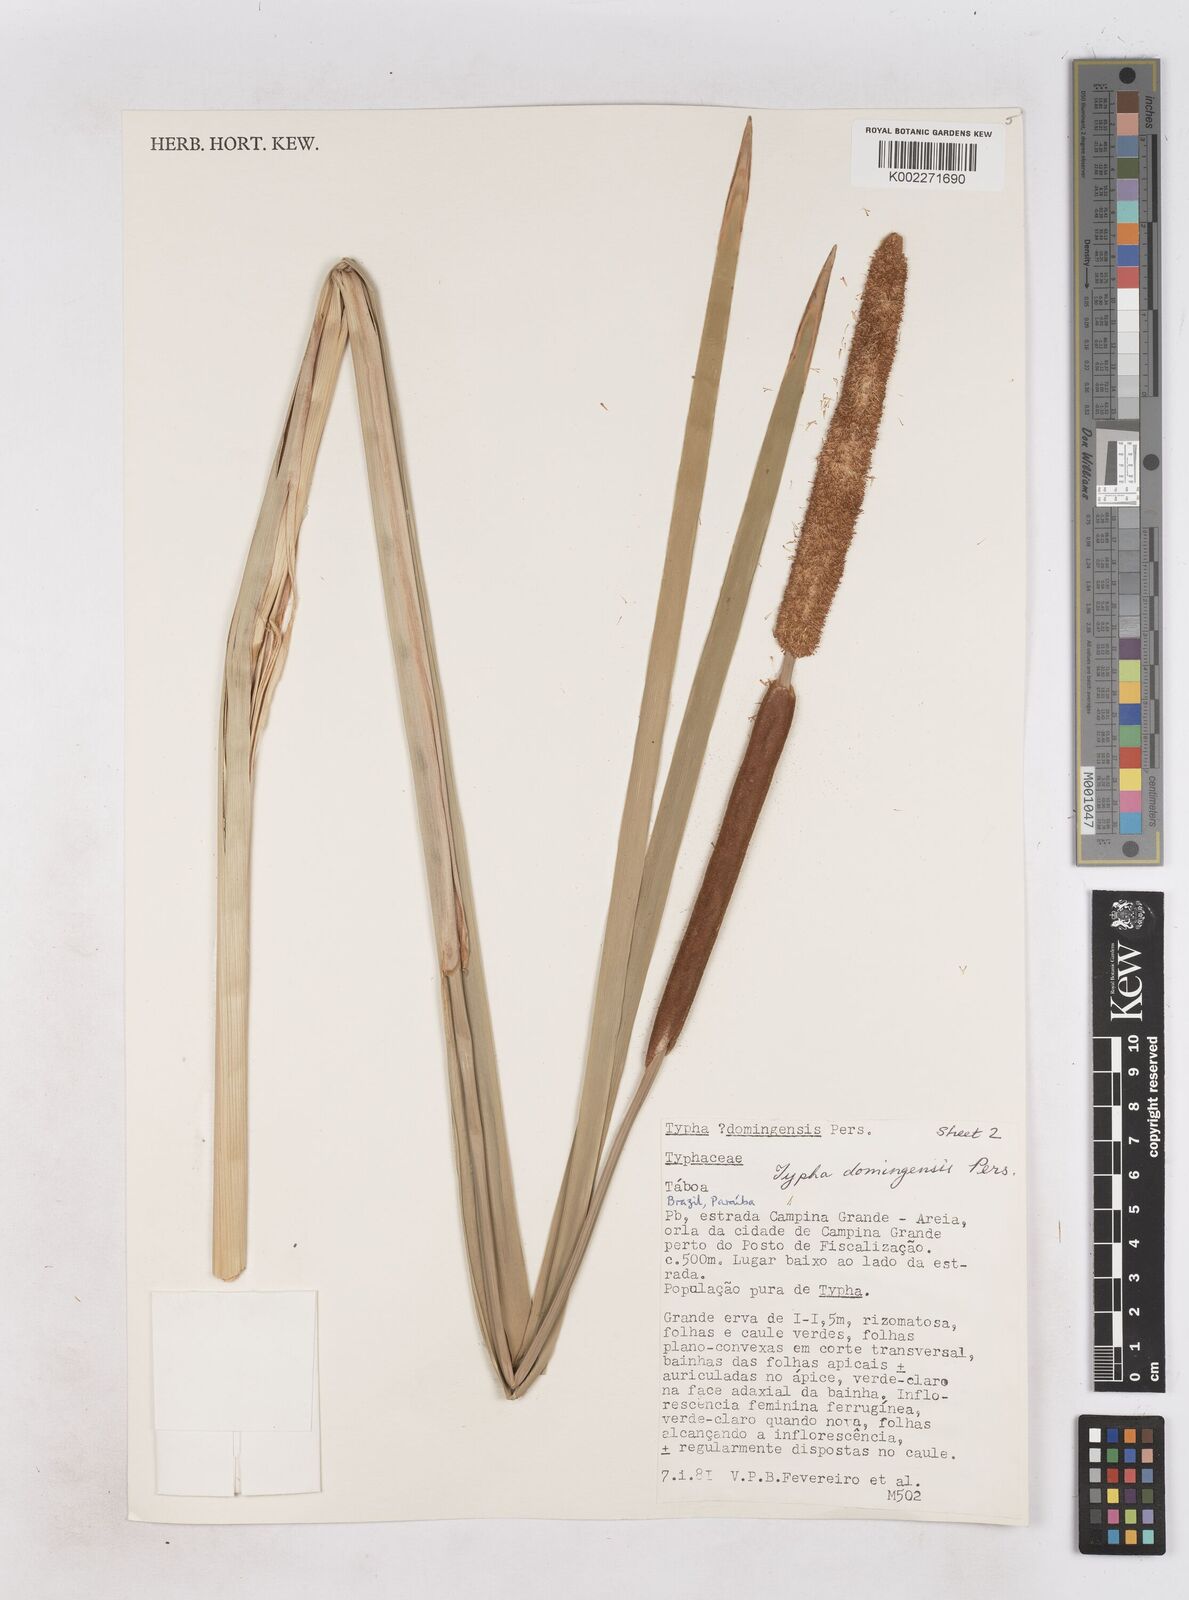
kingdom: Plantae
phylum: Tracheophyta
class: Liliopsida
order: Poales
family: Typhaceae
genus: Typha
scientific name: Typha domingensis
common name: Southern cattail
